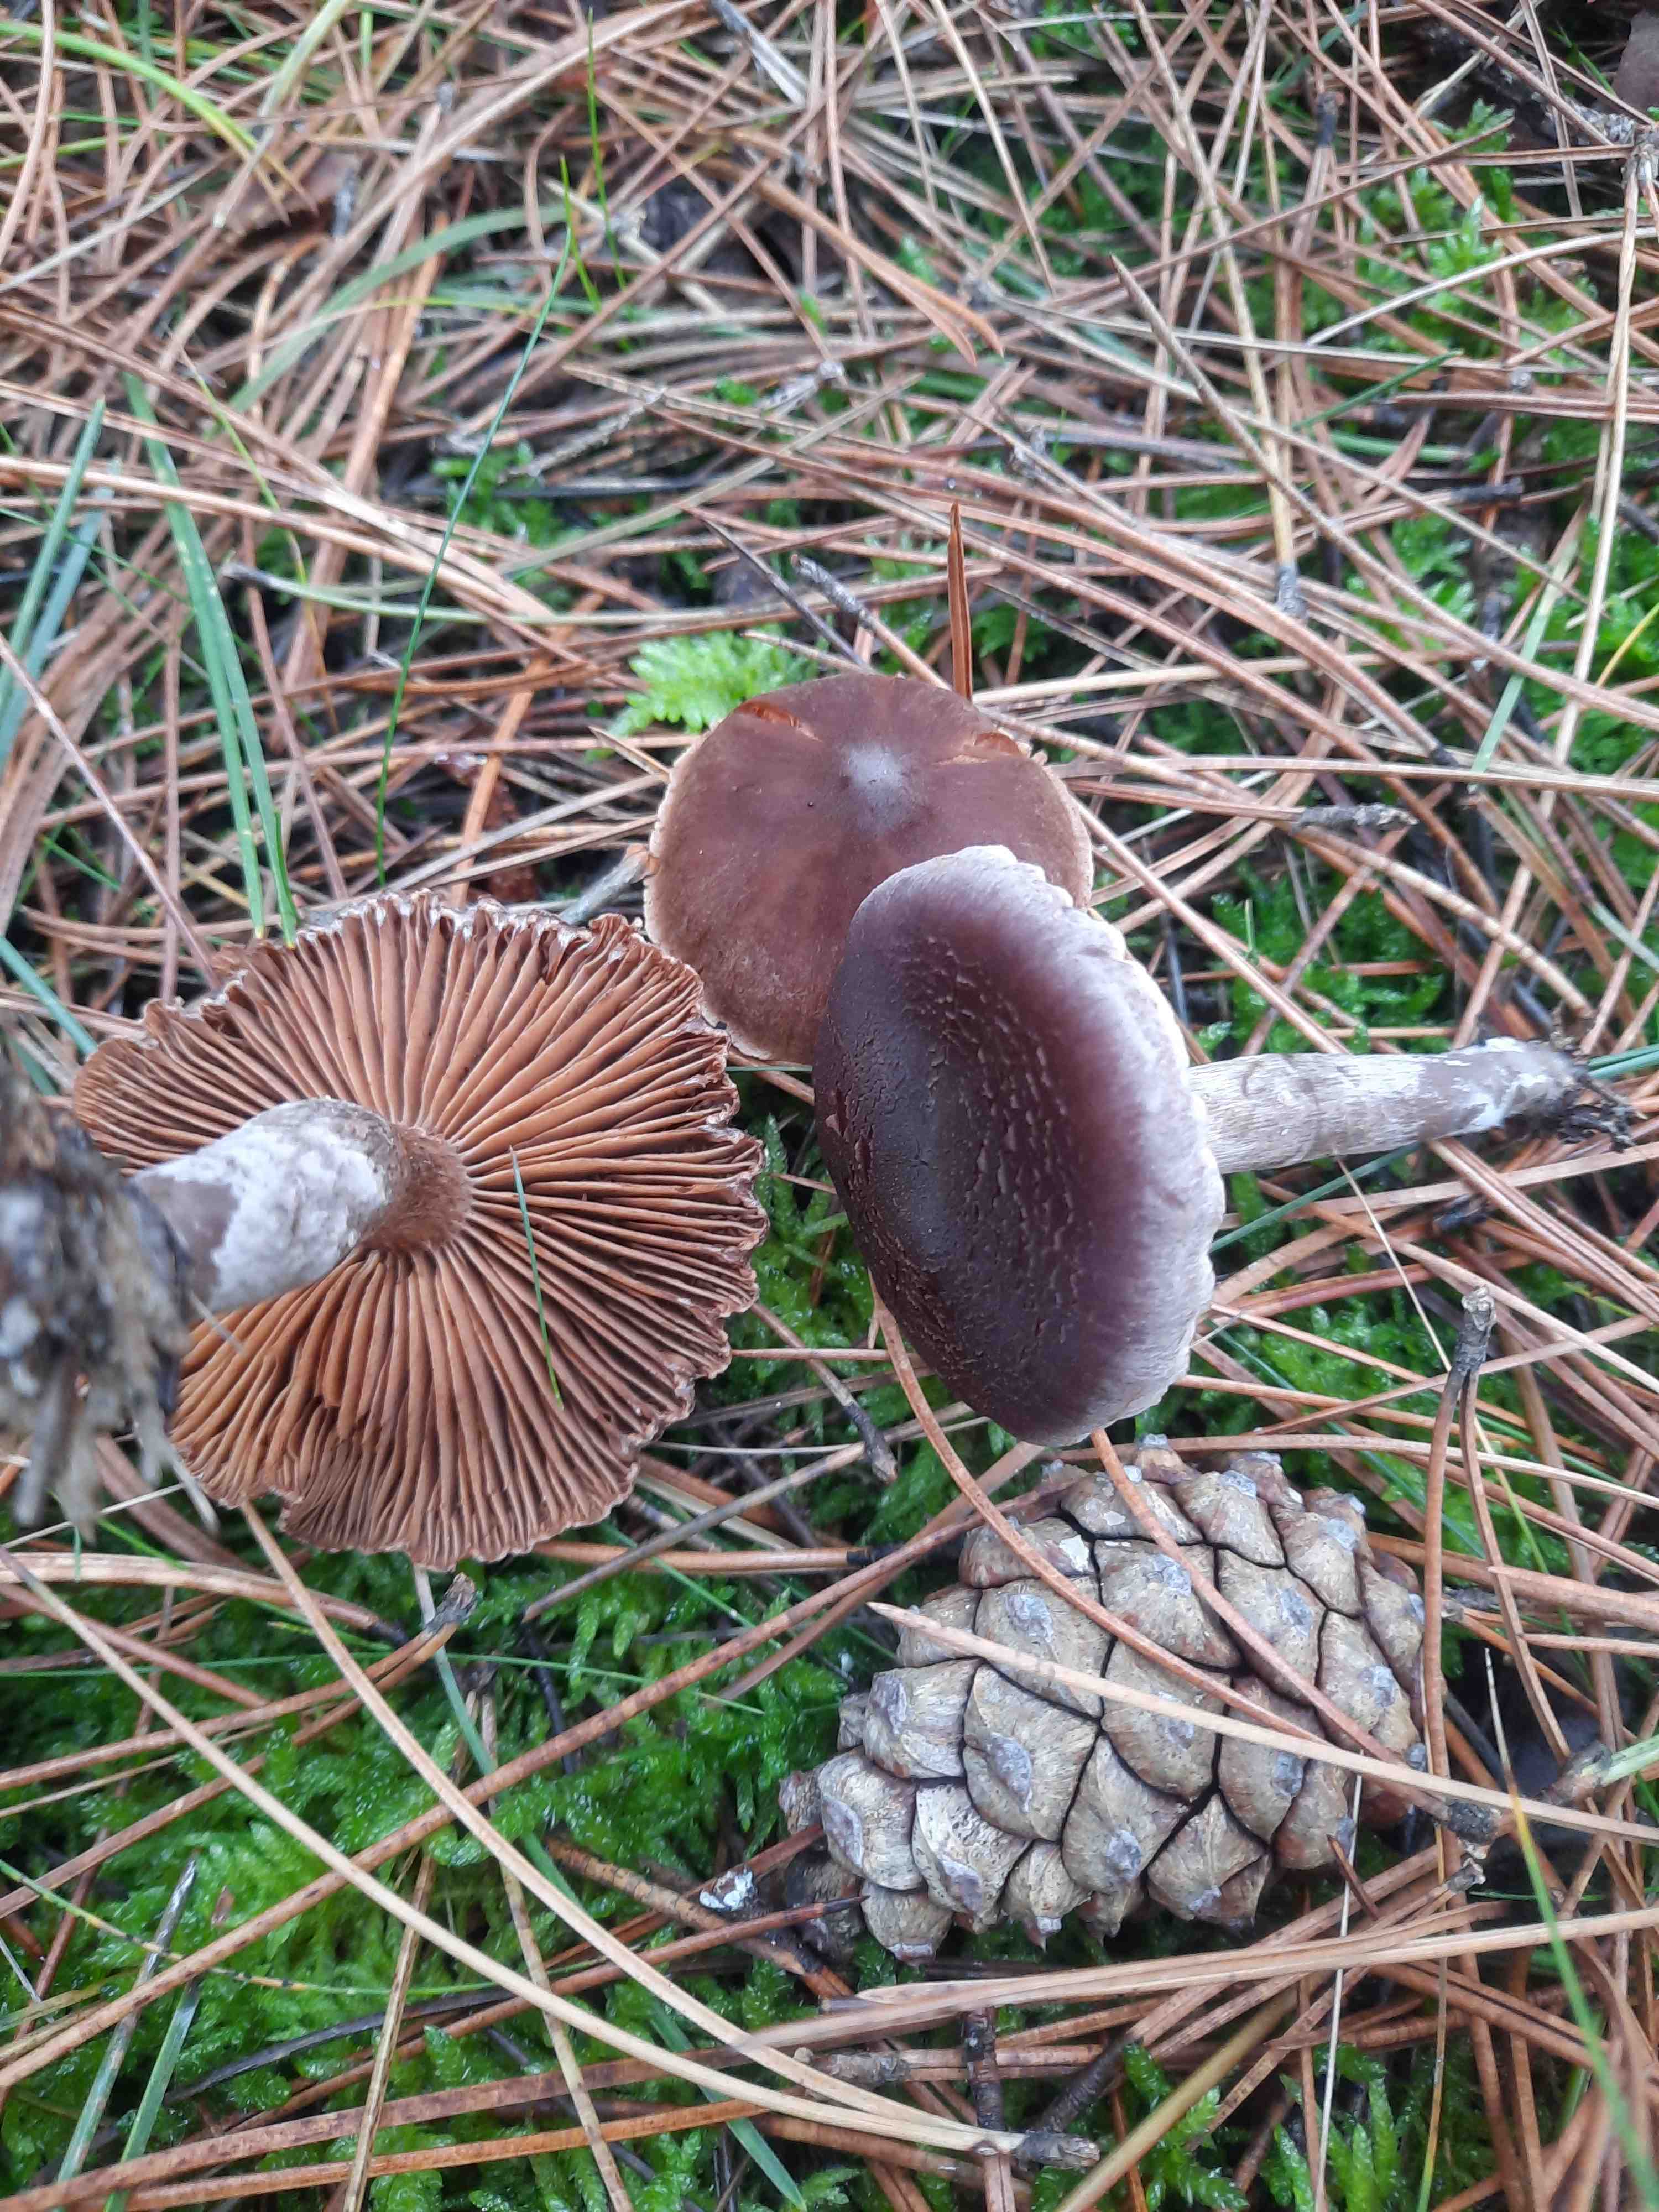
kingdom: Fungi
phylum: Basidiomycota
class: Agaricomycetes
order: Agaricales
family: Cortinariaceae
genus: Cortinarius
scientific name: Cortinarius
